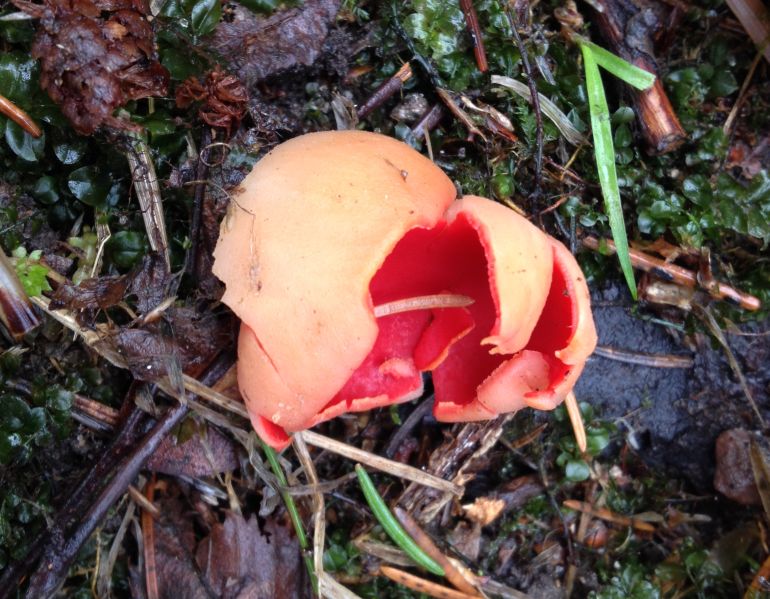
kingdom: Fungi
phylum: Ascomycota
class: Pezizomycetes
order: Pezizales
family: Sarcoscyphaceae
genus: Sarcoscypha
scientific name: Sarcoscypha austriaca
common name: krølhåret pragtbæger
